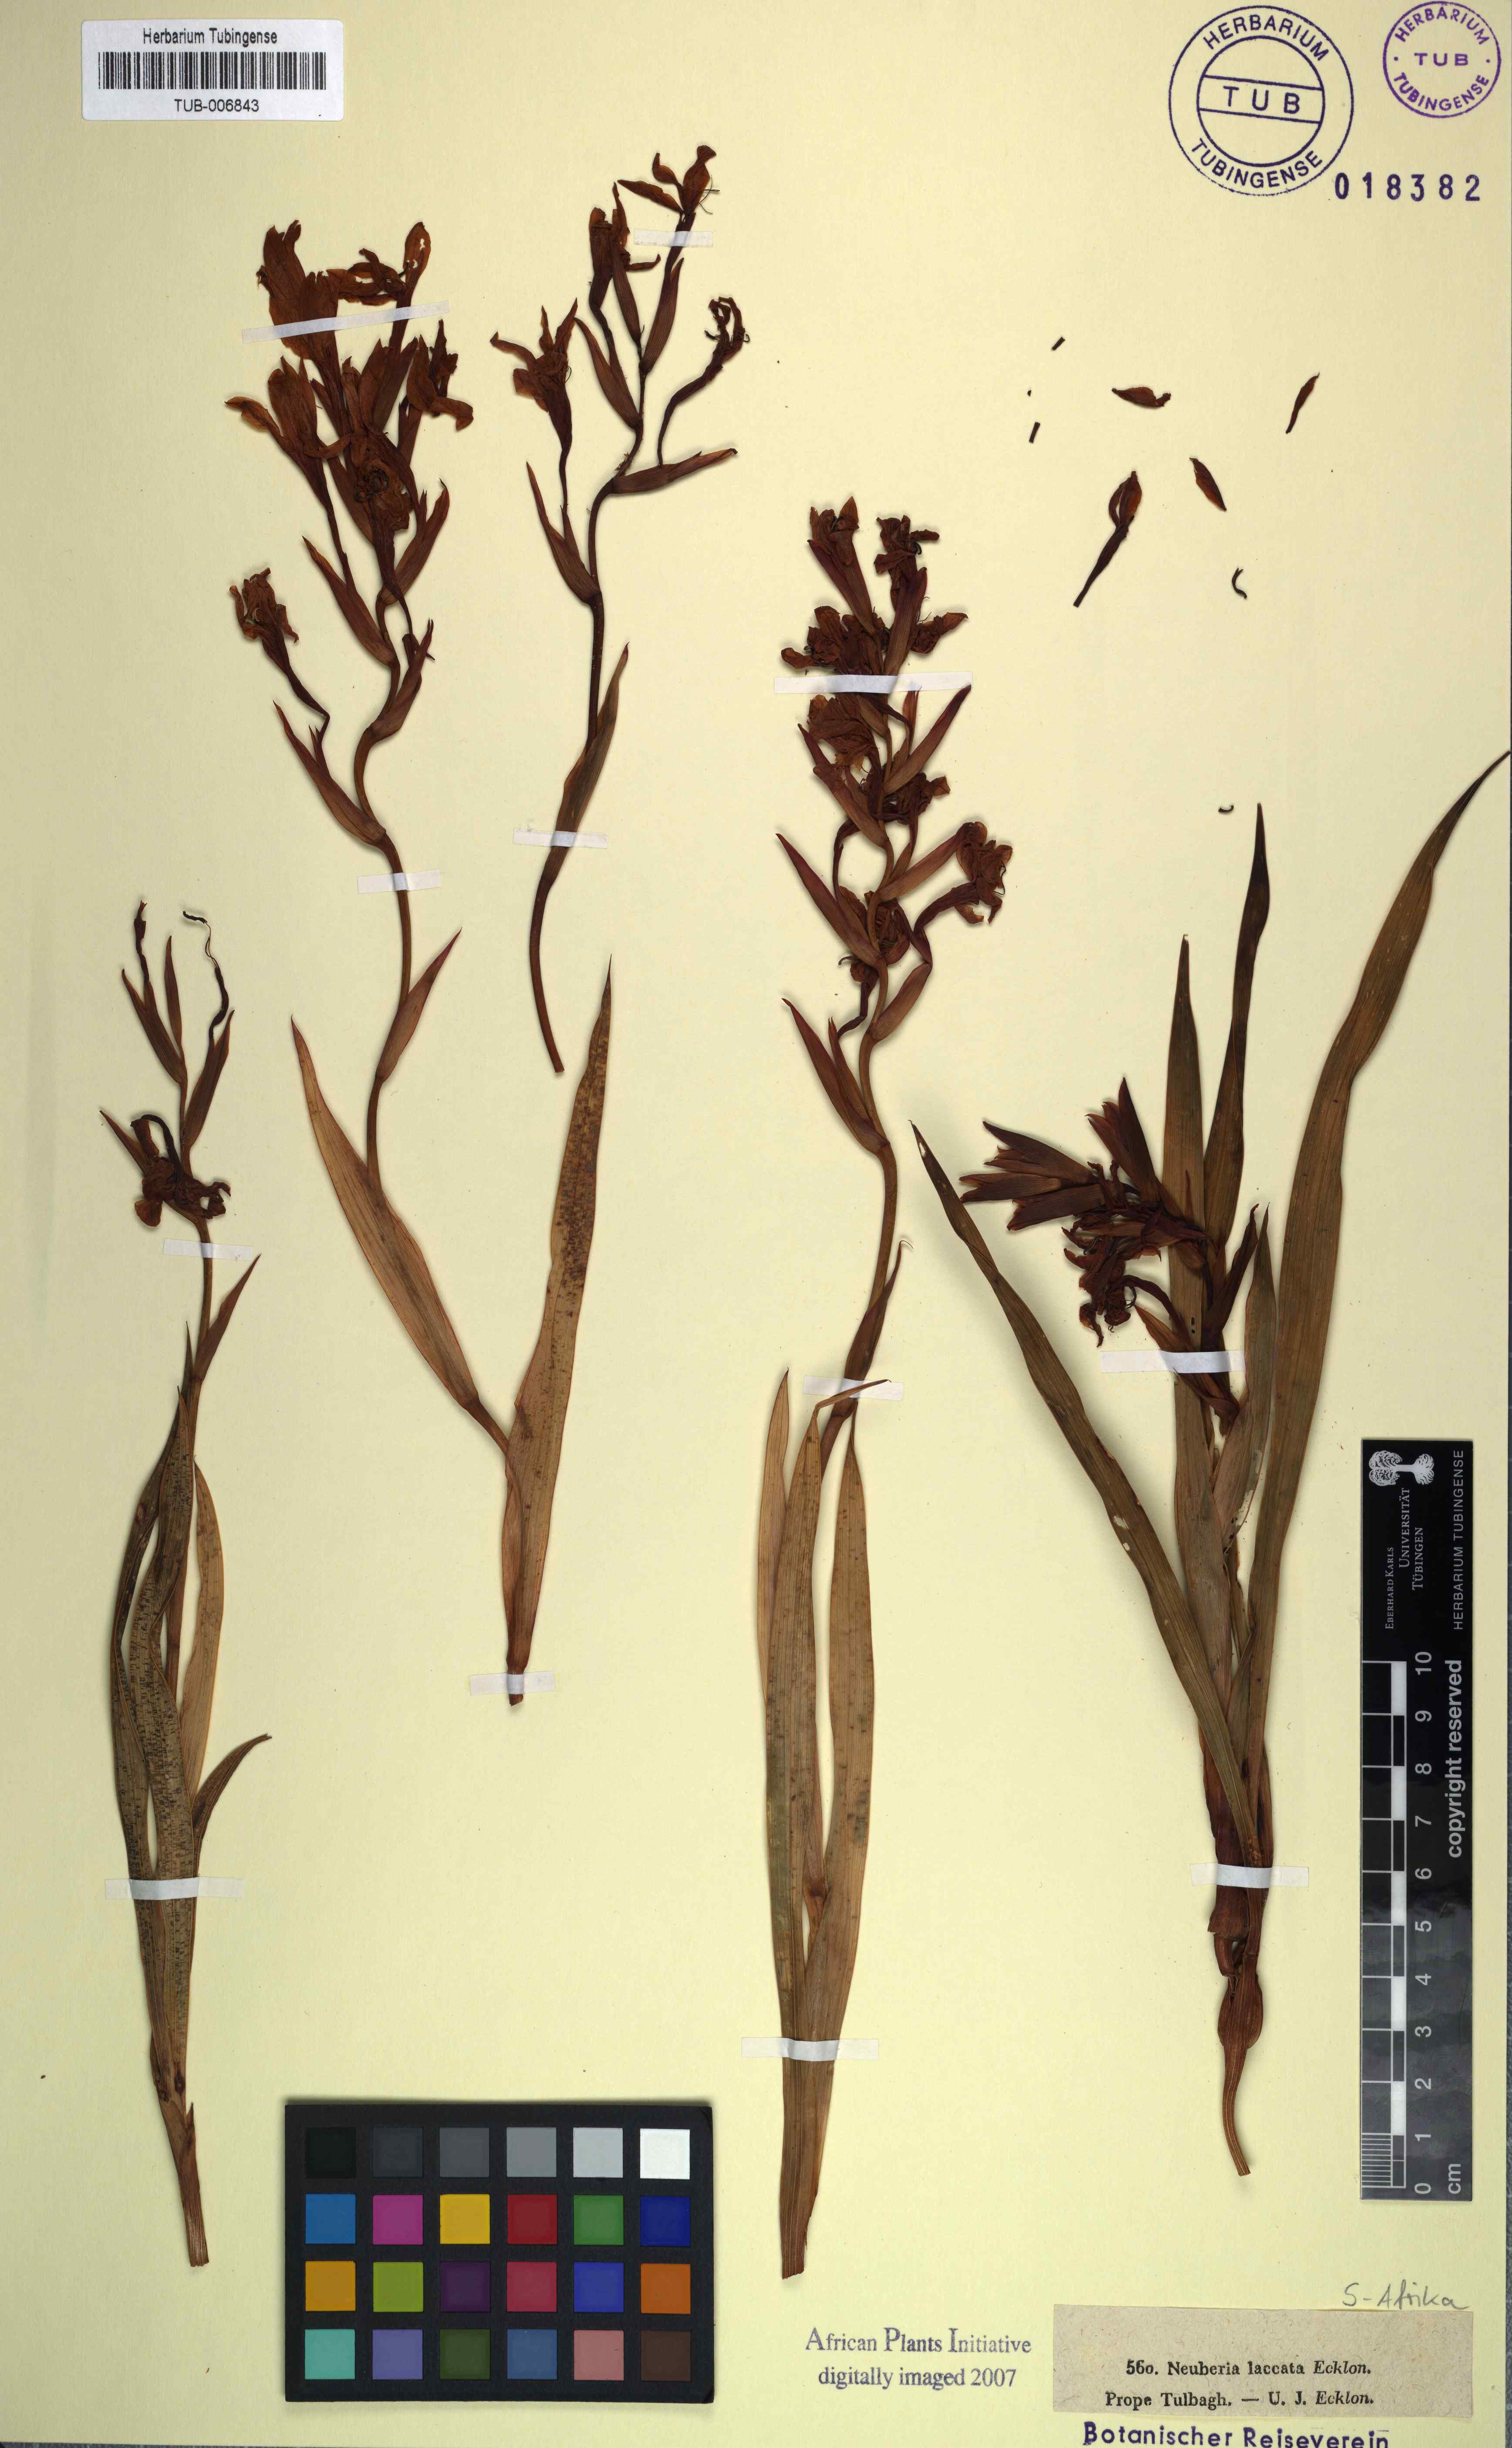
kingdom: Plantae
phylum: Tracheophyta
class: Liliopsida
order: Asparagales
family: Iridaceae
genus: Watsonia
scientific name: Watsonia humilis
